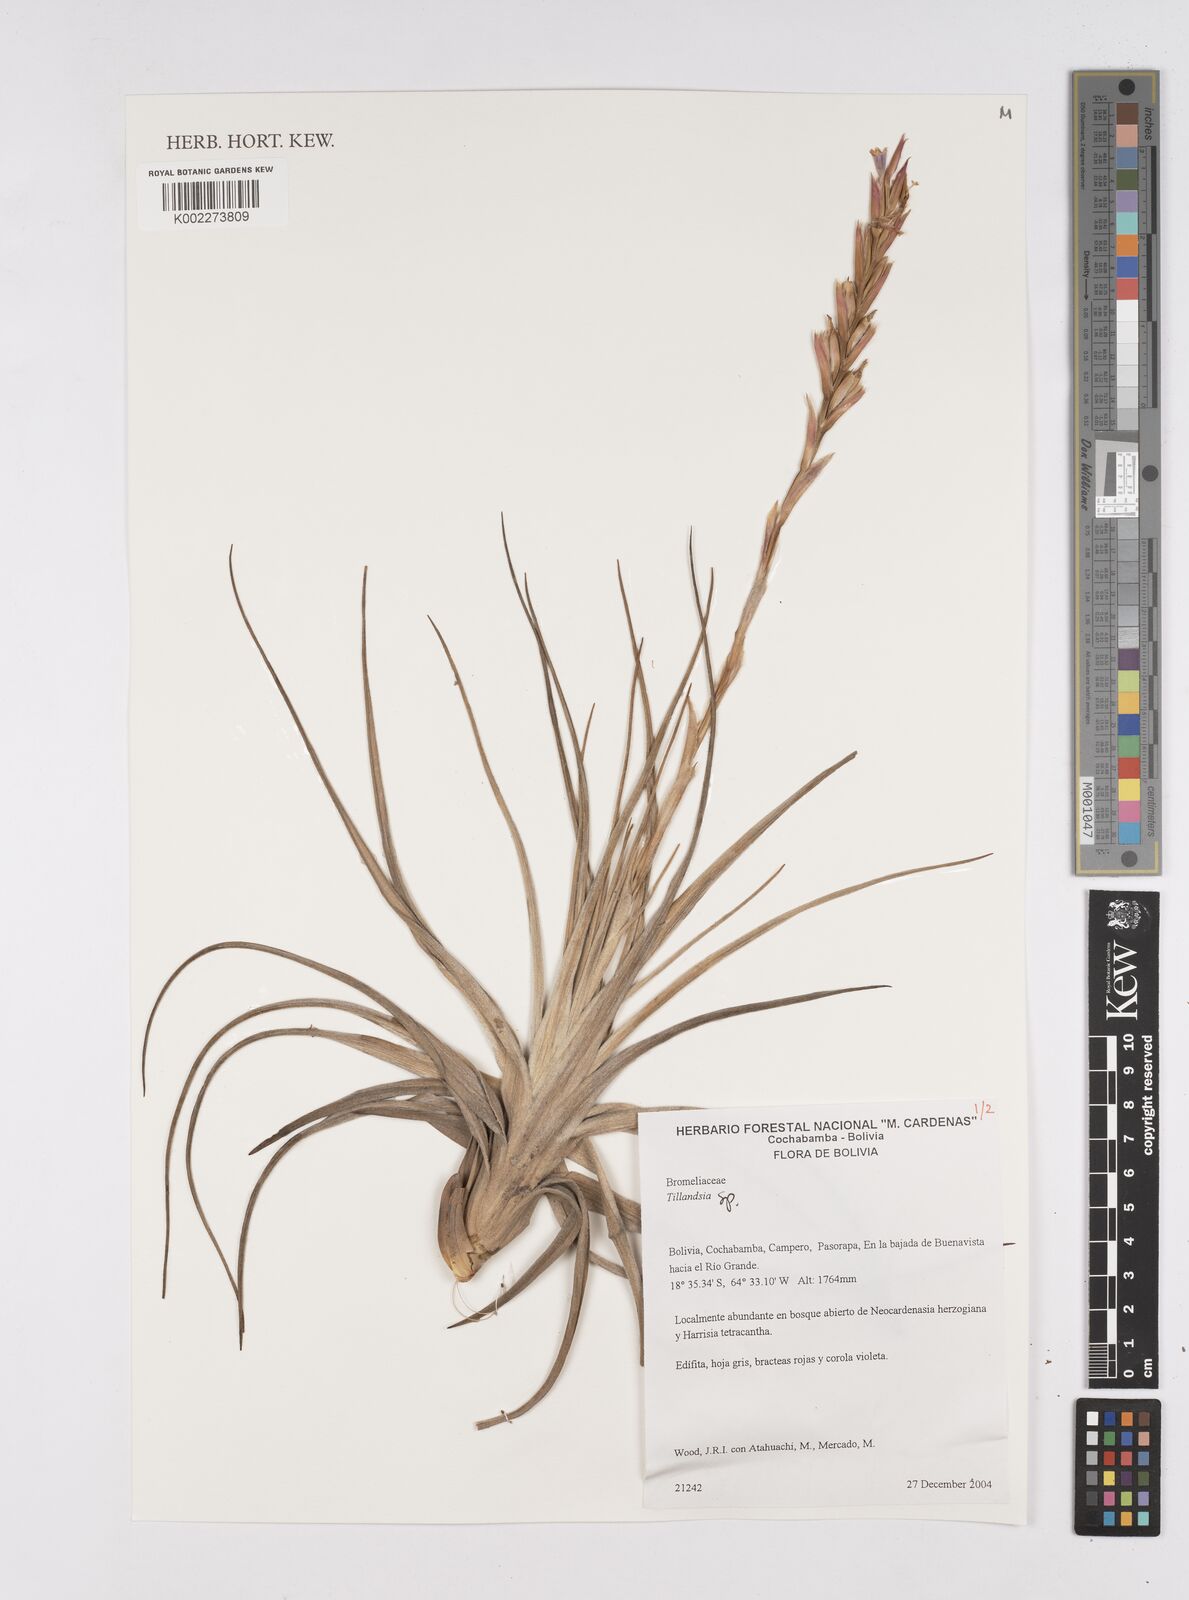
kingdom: Plantae
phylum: Tracheophyta
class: Liliopsida
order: Poales
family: Bromeliaceae
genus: Tillandsia
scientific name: Tillandsia
